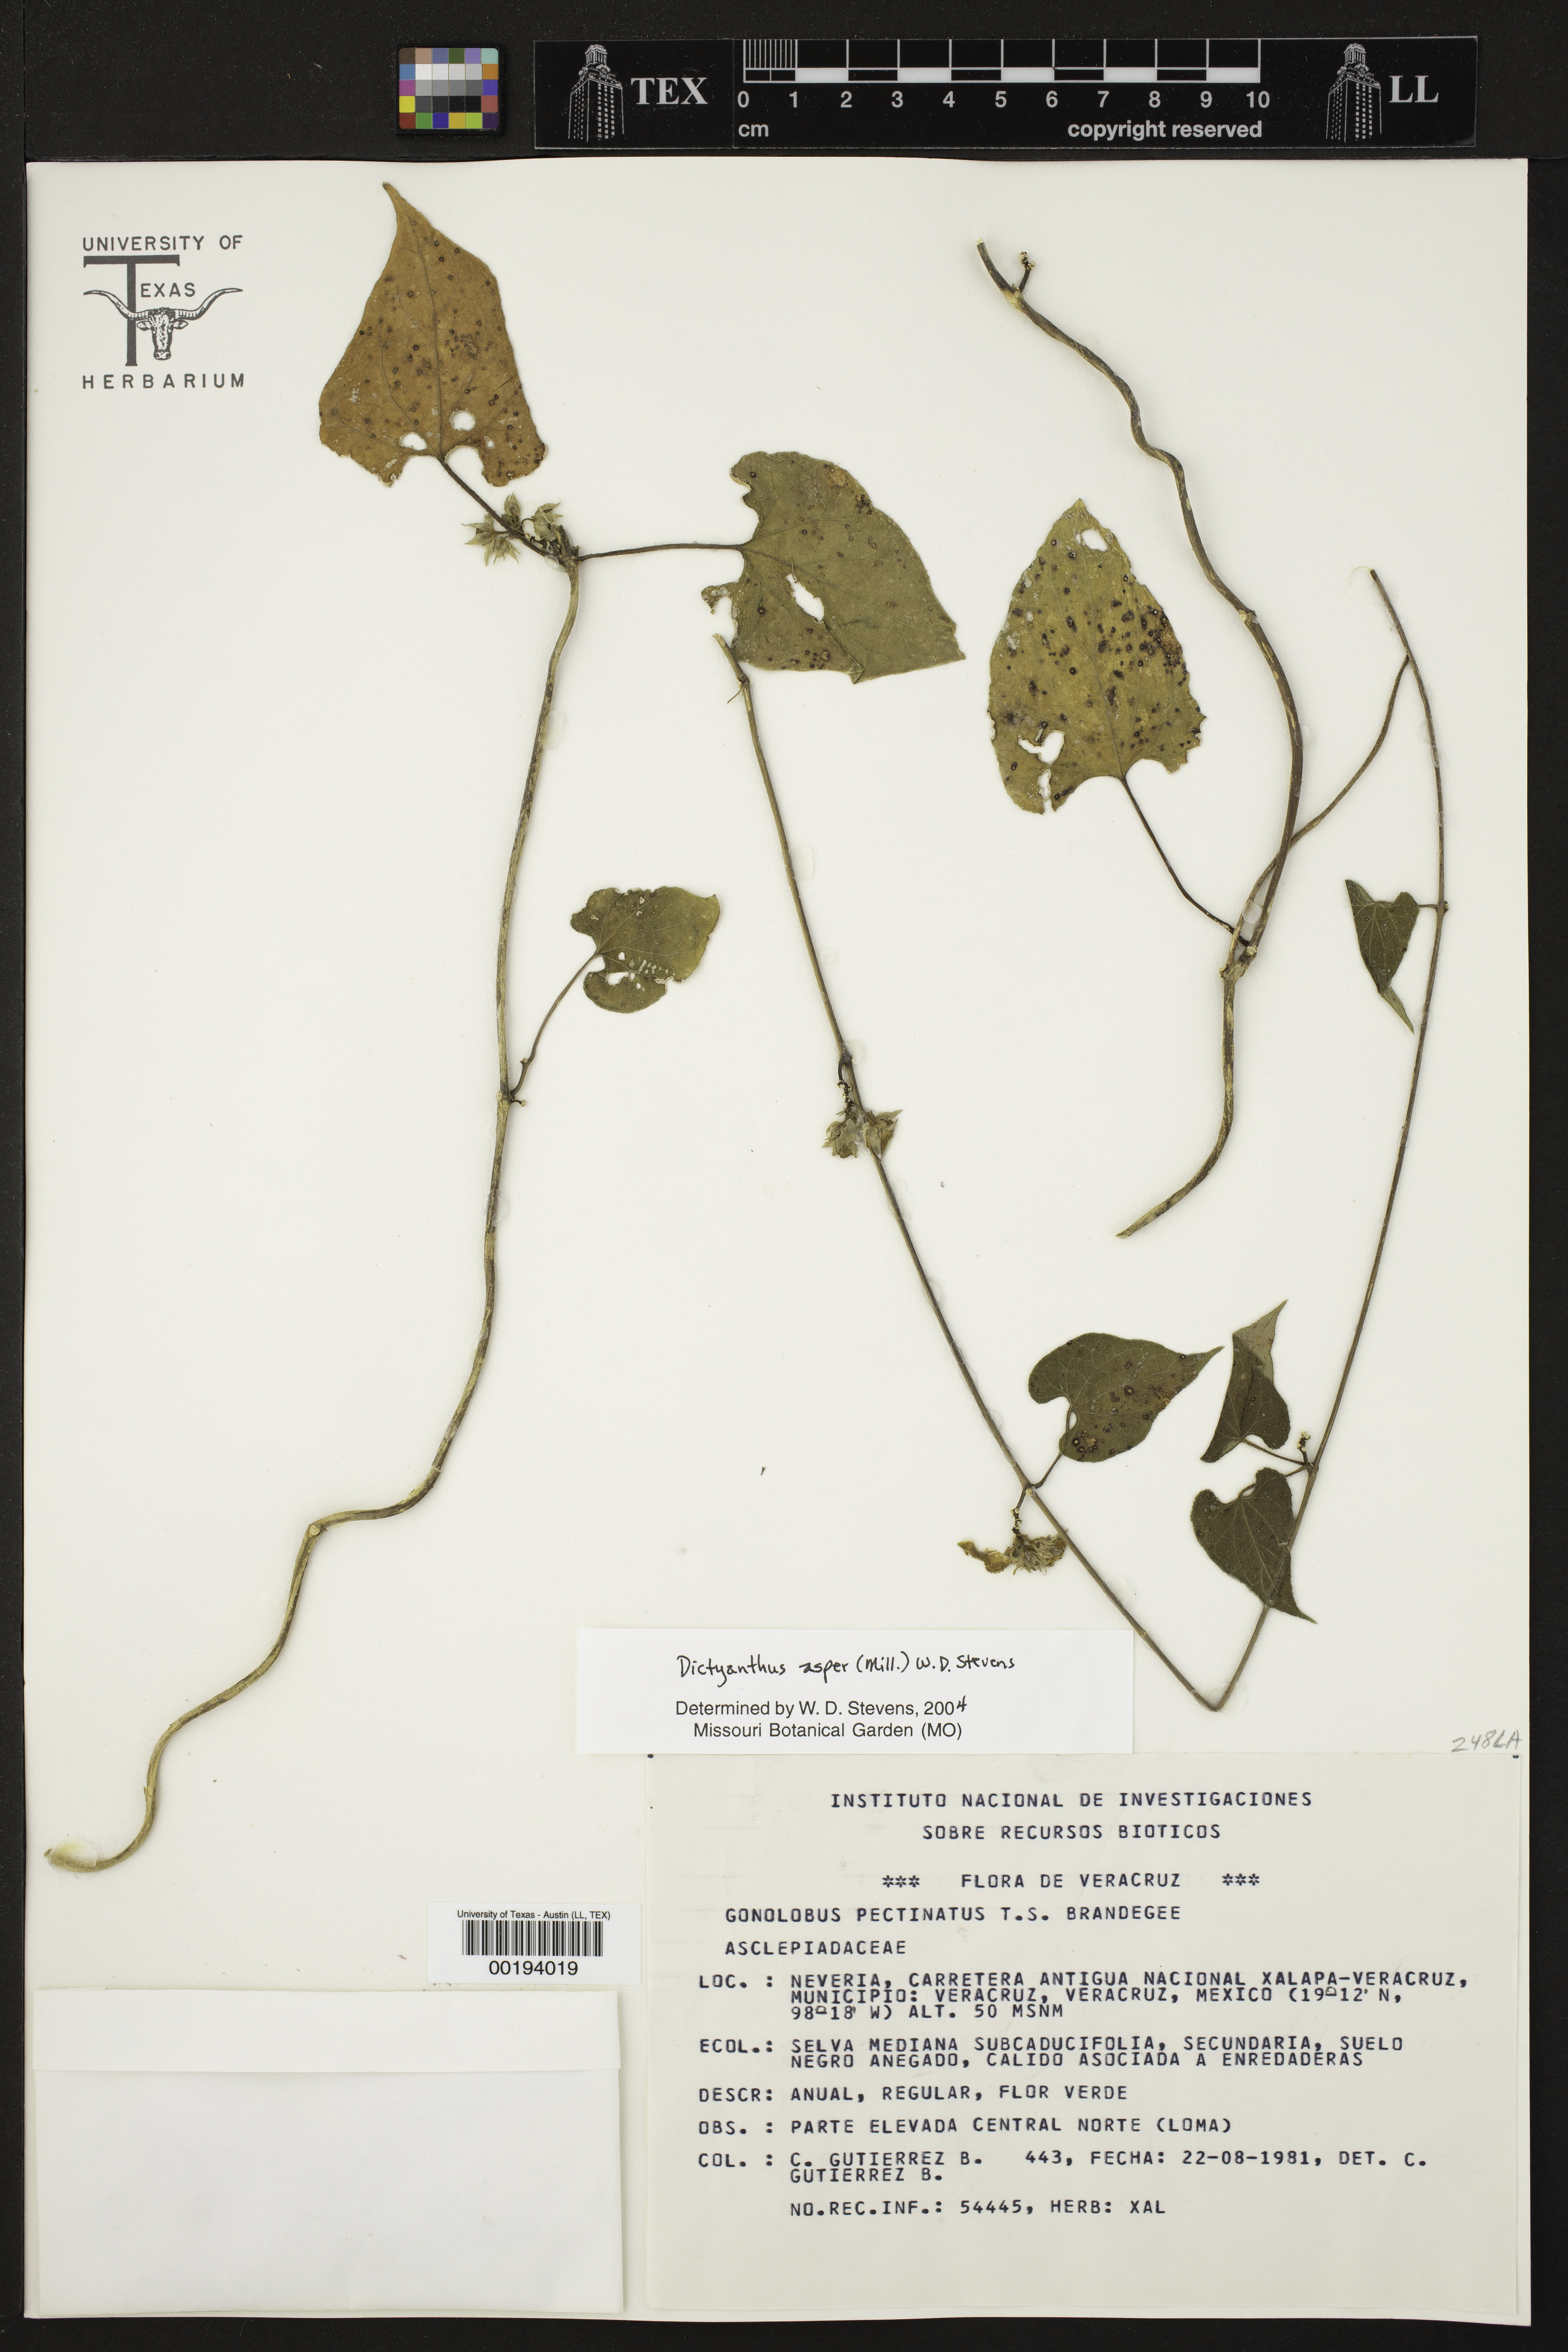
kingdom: Plantae
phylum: Tracheophyta
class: Magnoliopsida
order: Gentianales
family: Apocynaceae
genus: Dictyanthus
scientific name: Dictyanthus asper
